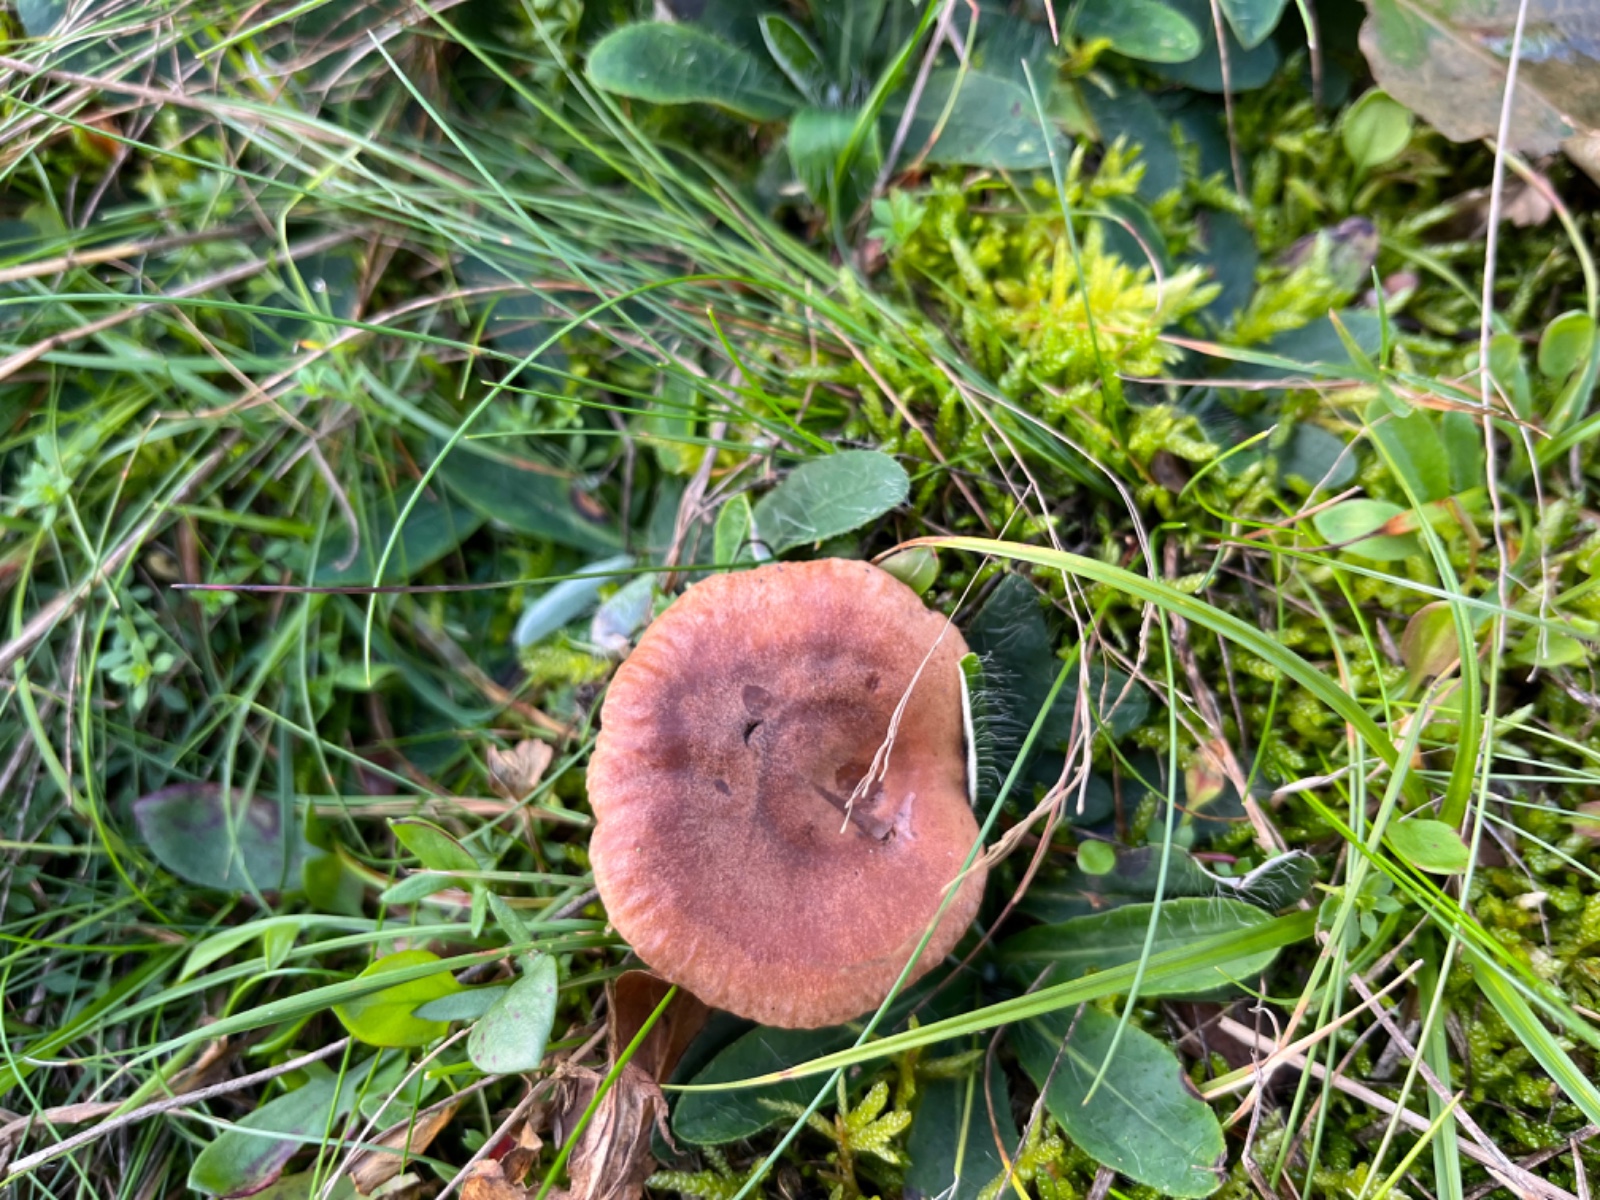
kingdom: Fungi
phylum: Basidiomycota
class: Agaricomycetes
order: Russulales
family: Russulaceae
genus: Lactarius
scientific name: Lactarius quietus
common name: ege-mælkehat
